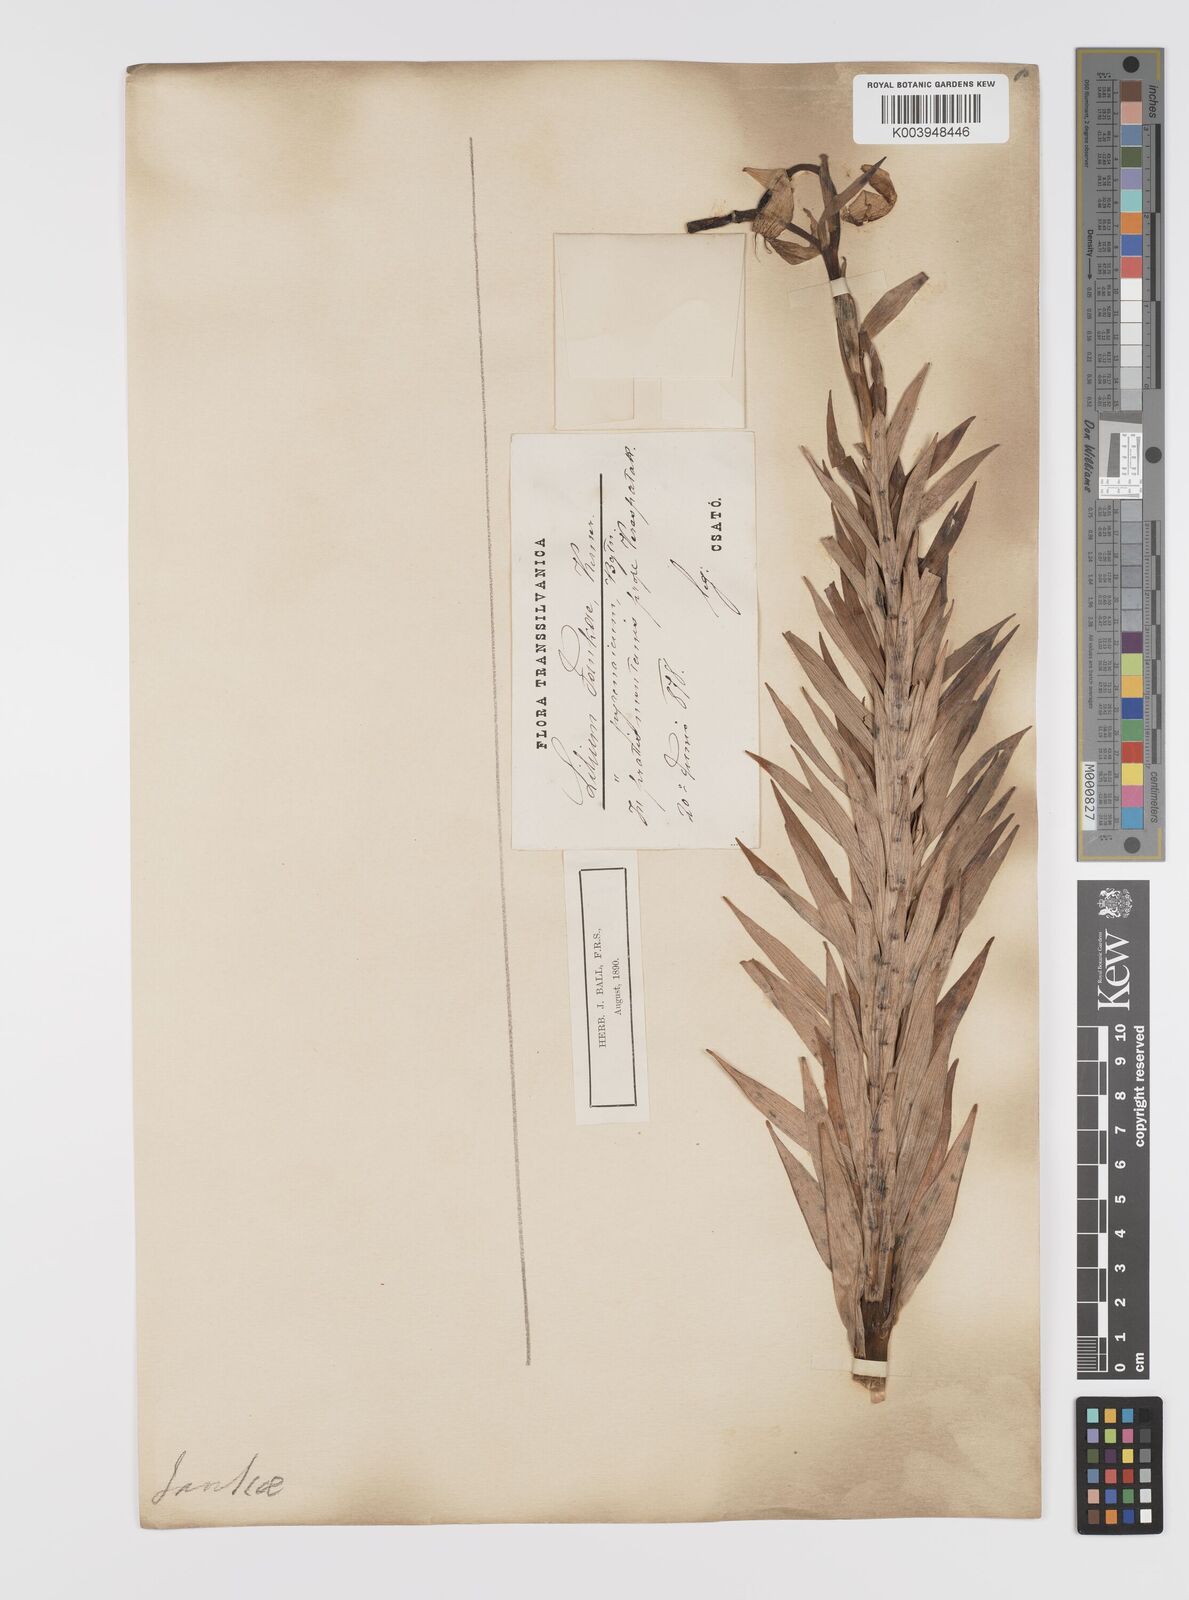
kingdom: Plantae
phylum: Tracheophyta
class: Liliopsida
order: Liliales
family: Liliaceae
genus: Lilium
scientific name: Lilium jankae
